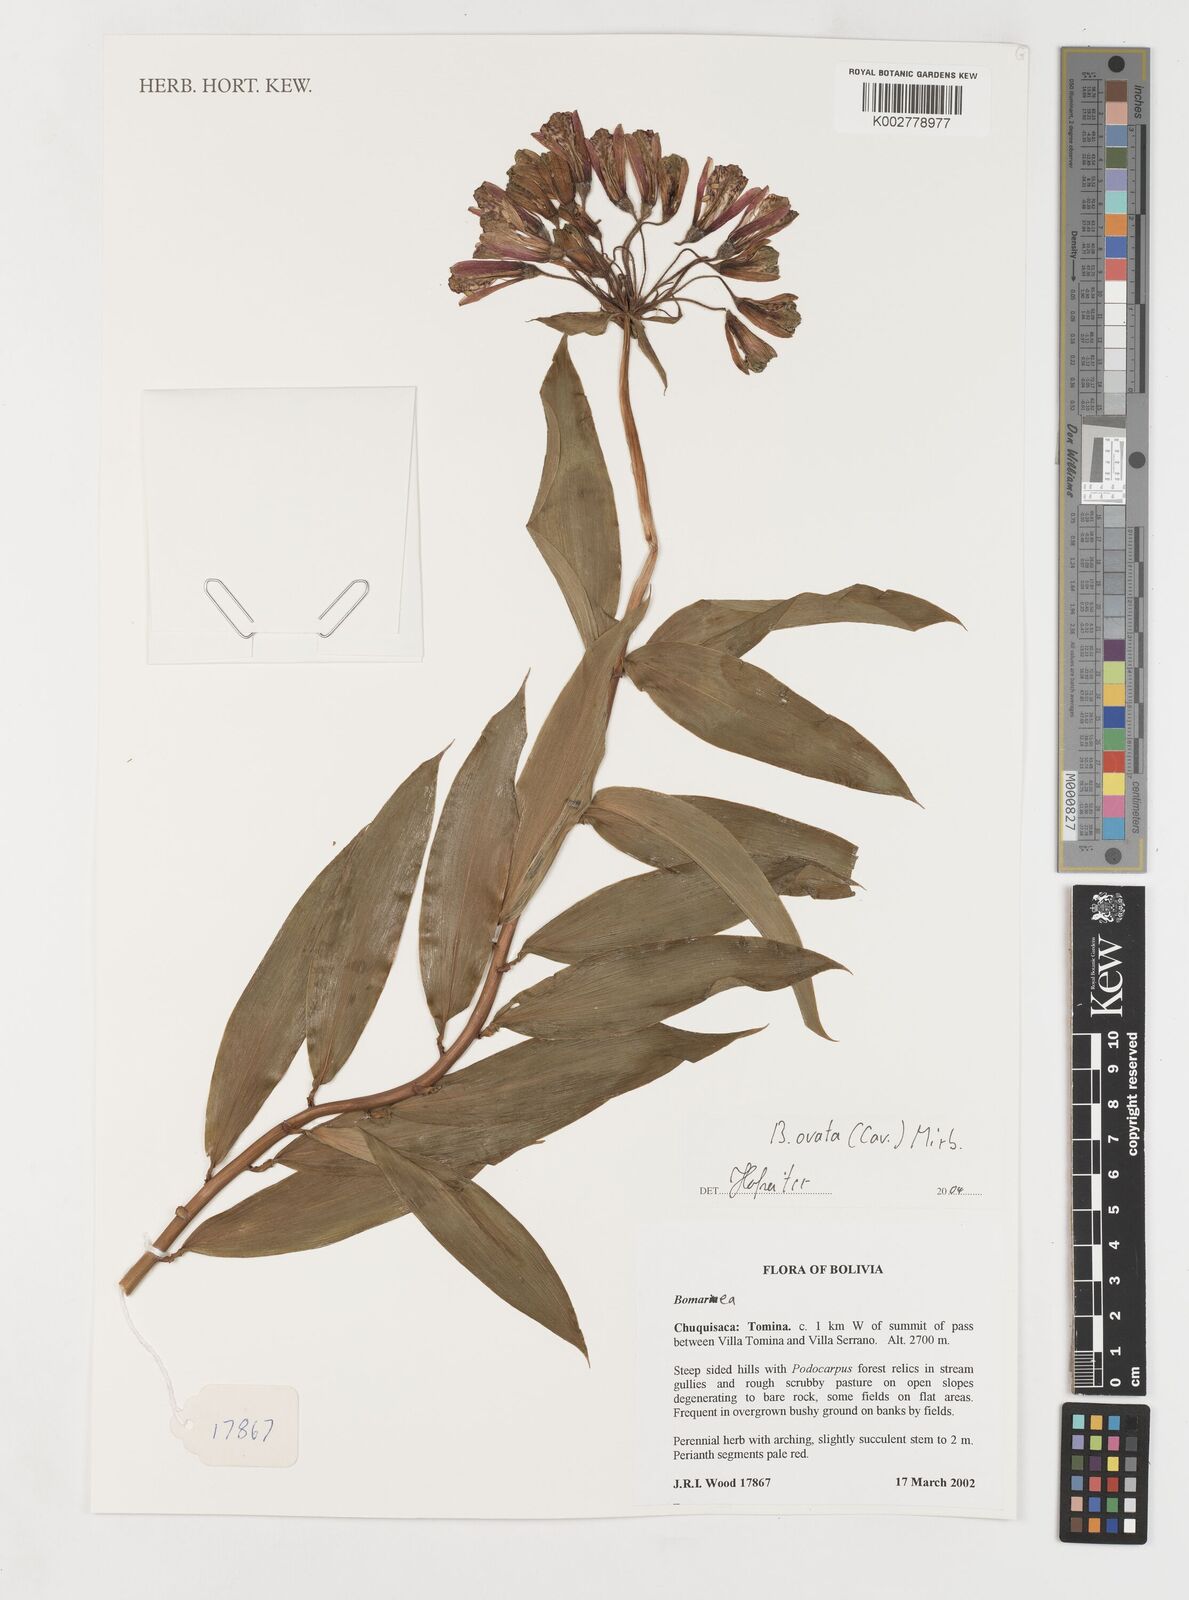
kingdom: Plantae
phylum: Tracheophyta
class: Liliopsida
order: Liliales
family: Alstroemeriaceae
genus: Bomarea
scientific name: Bomarea ovata
